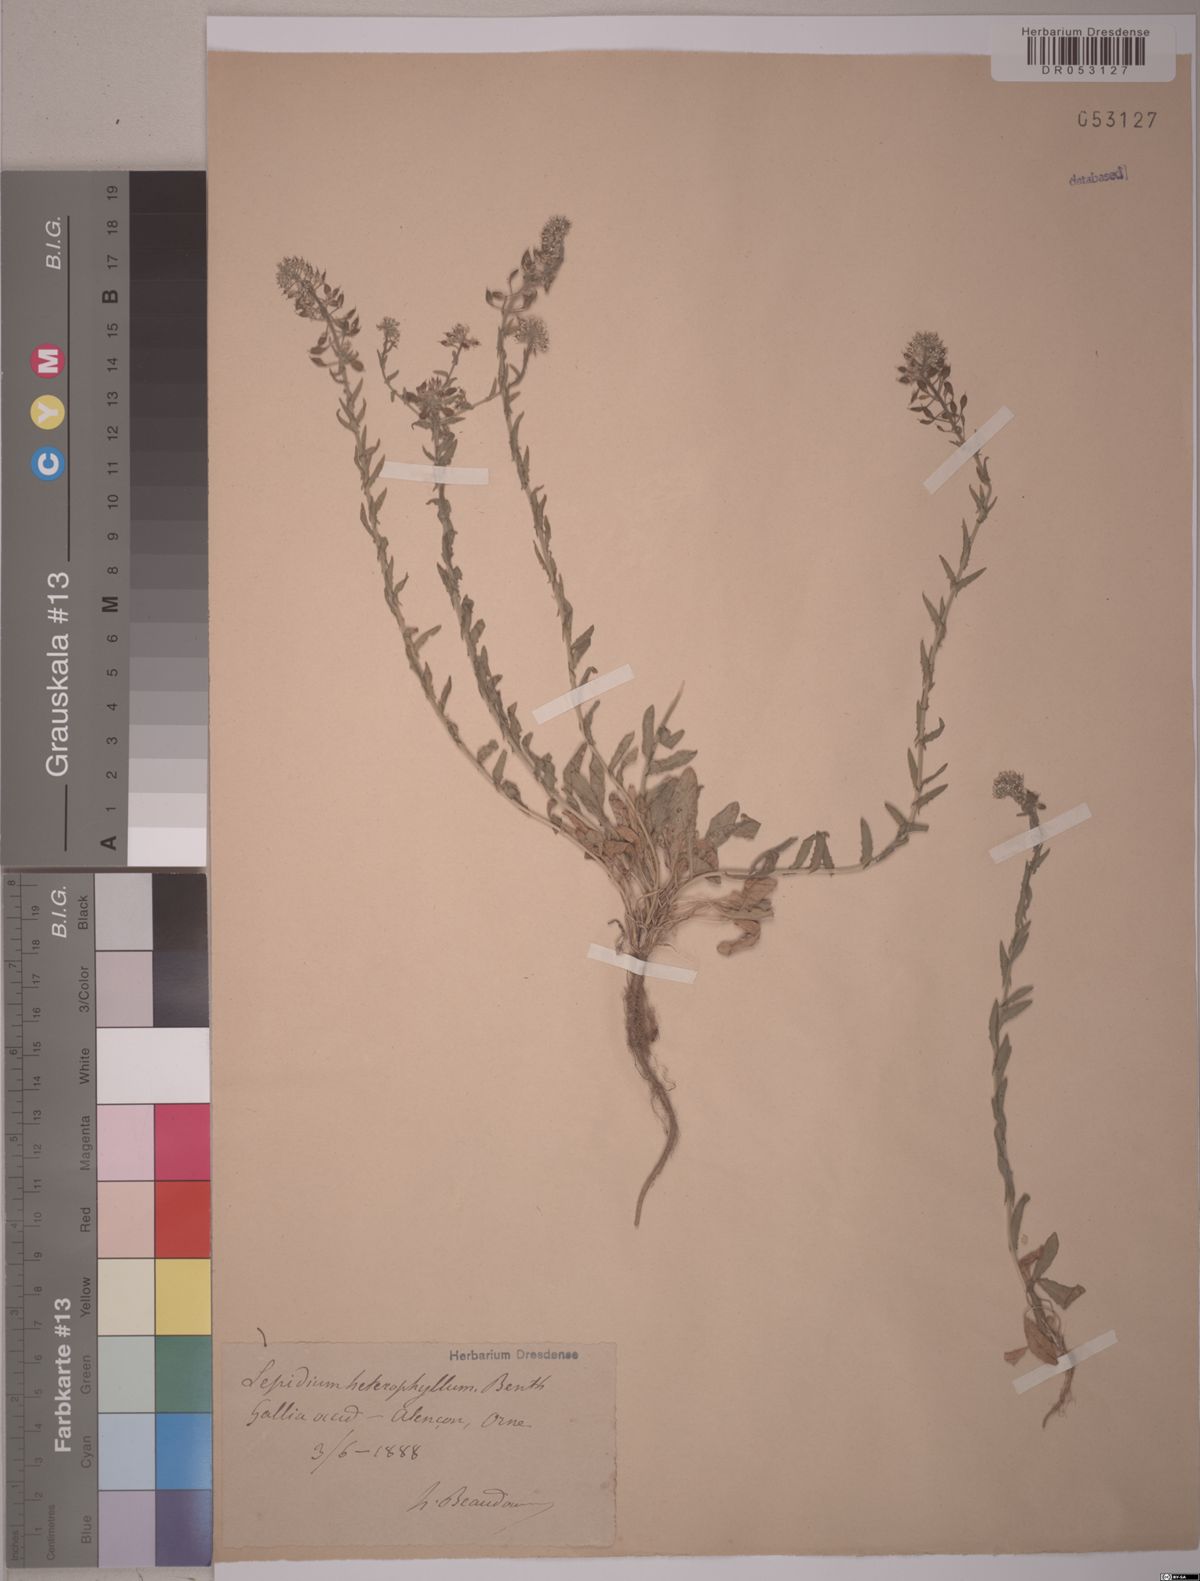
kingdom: Plantae
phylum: Tracheophyta
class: Magnoliopsida
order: Brassicales
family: Brassicaceae
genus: Lepidium
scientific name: Lepidium heterophyllum
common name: Smith's pepperwort
